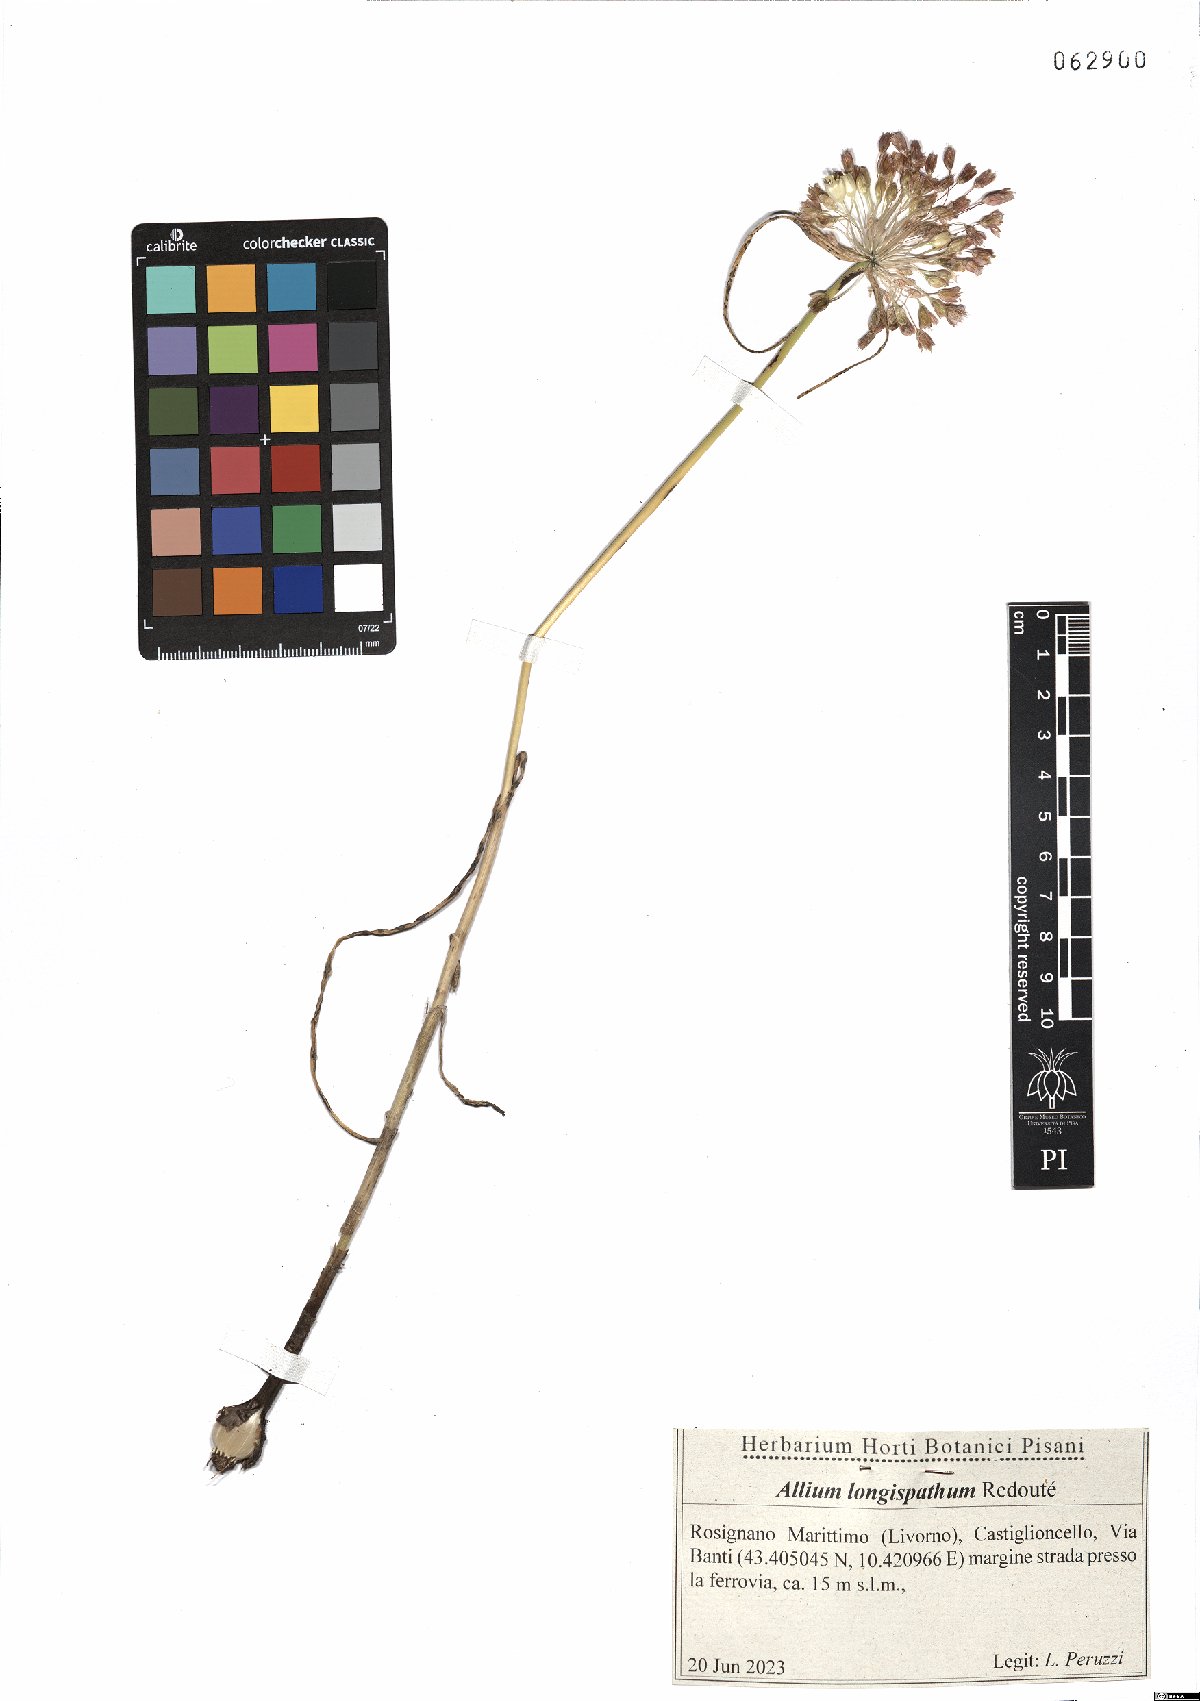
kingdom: Plantae
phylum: Tracheophyta
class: Liliopsida
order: Asparagales
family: Amaryllidaceae
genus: Allium
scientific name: Allium longispathum
